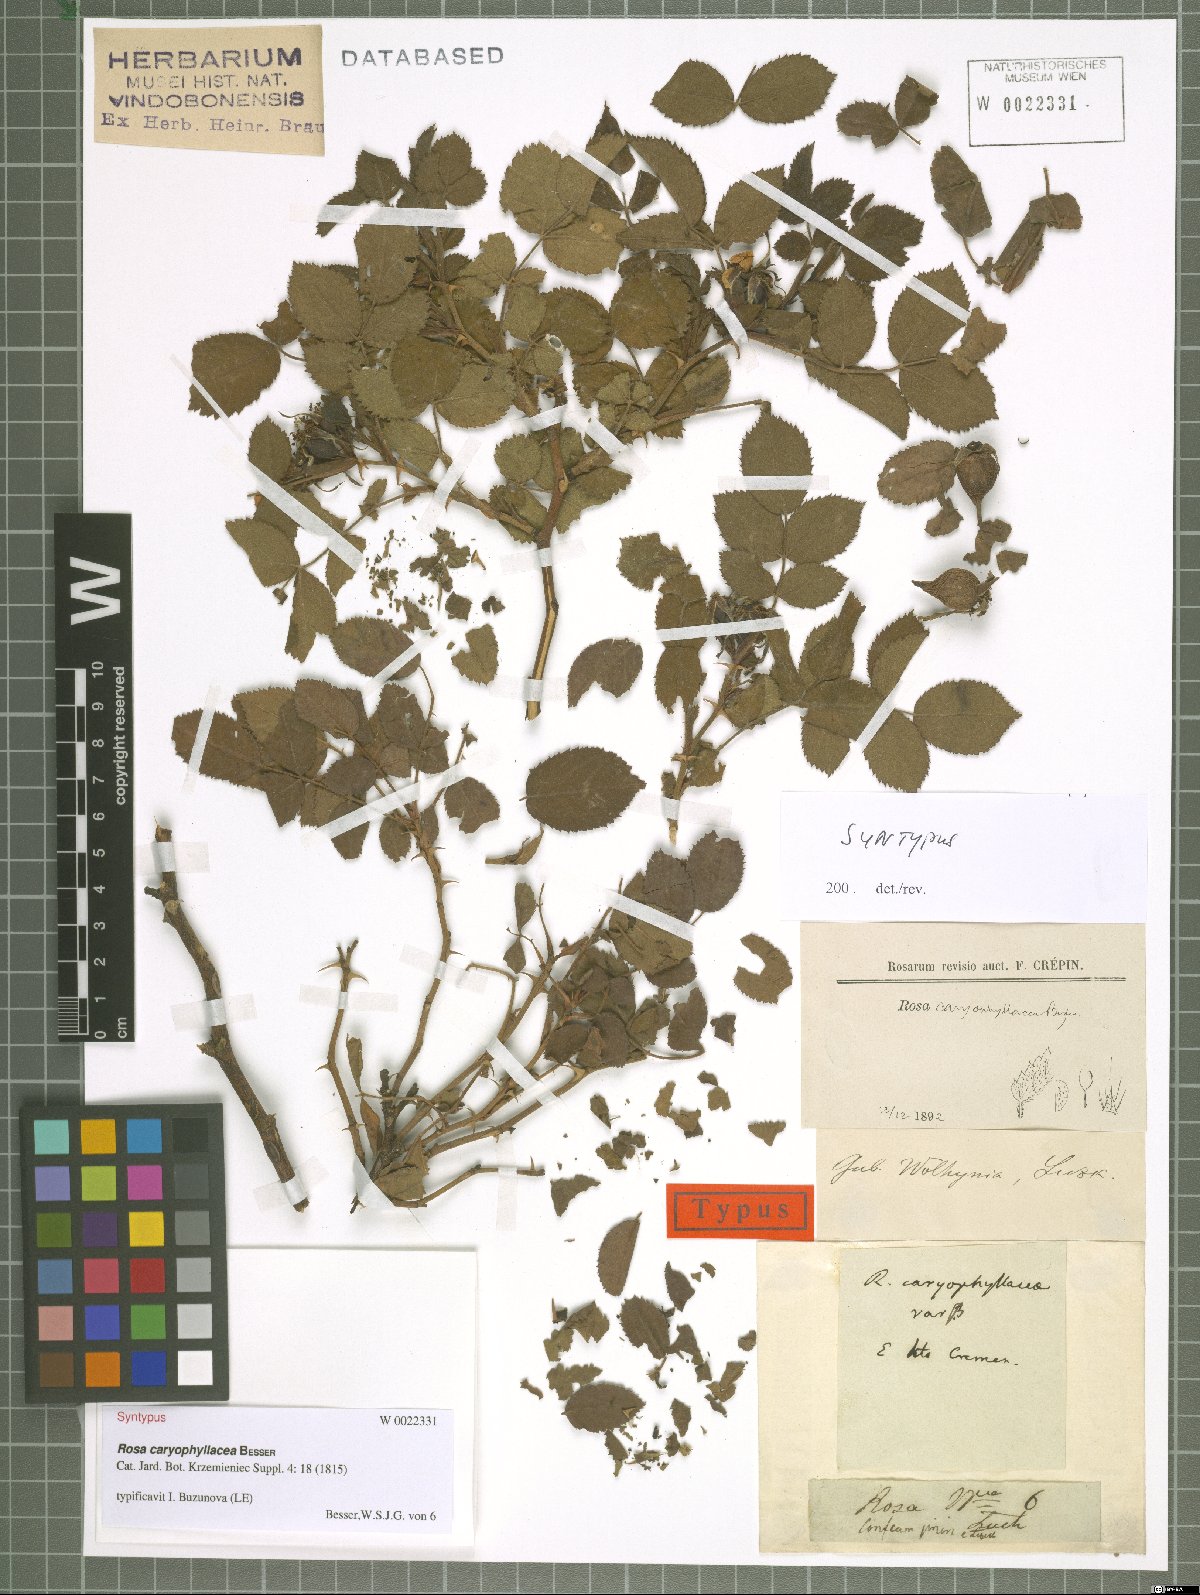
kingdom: Plantae
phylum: Tracheophyta
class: Magnoliopsida
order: Rosales
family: Rosaceae
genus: Rosa
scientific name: Rosa caryophyllacea
